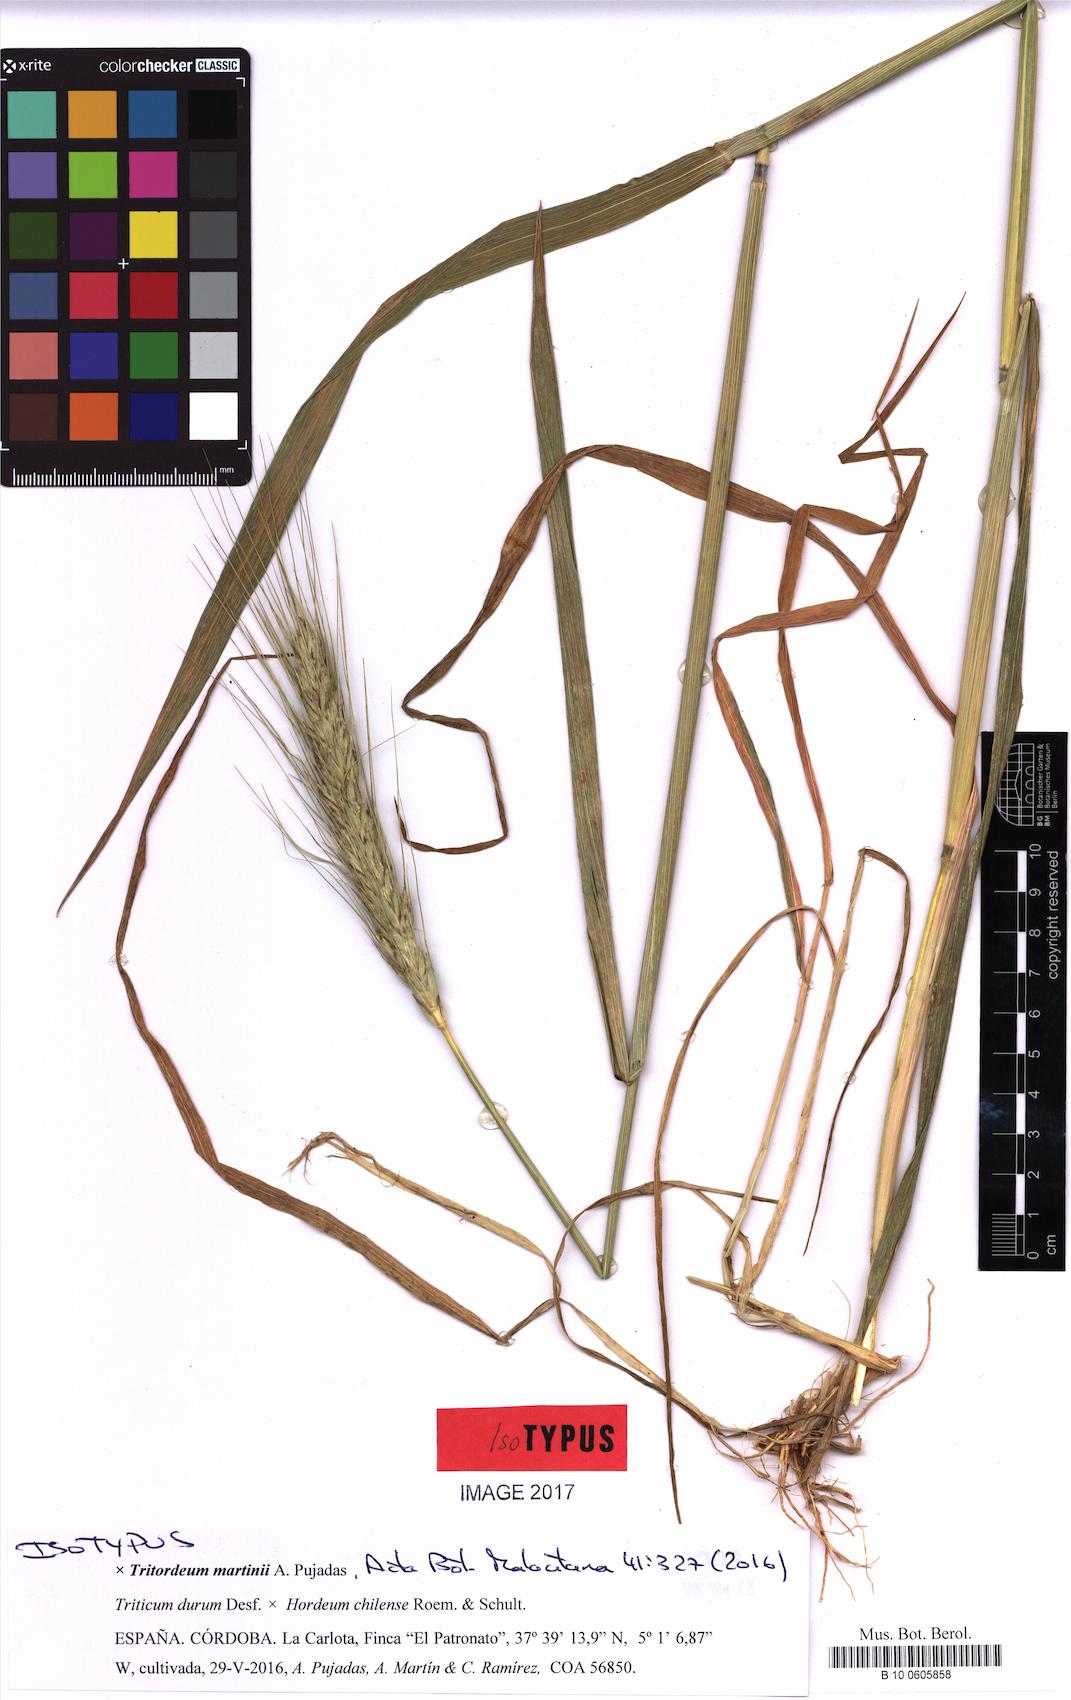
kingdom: Plantae
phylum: Tracheophyta
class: Liliopsida
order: Poales
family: Poaceae
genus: Tritordeum
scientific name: Tritordeum martinii
